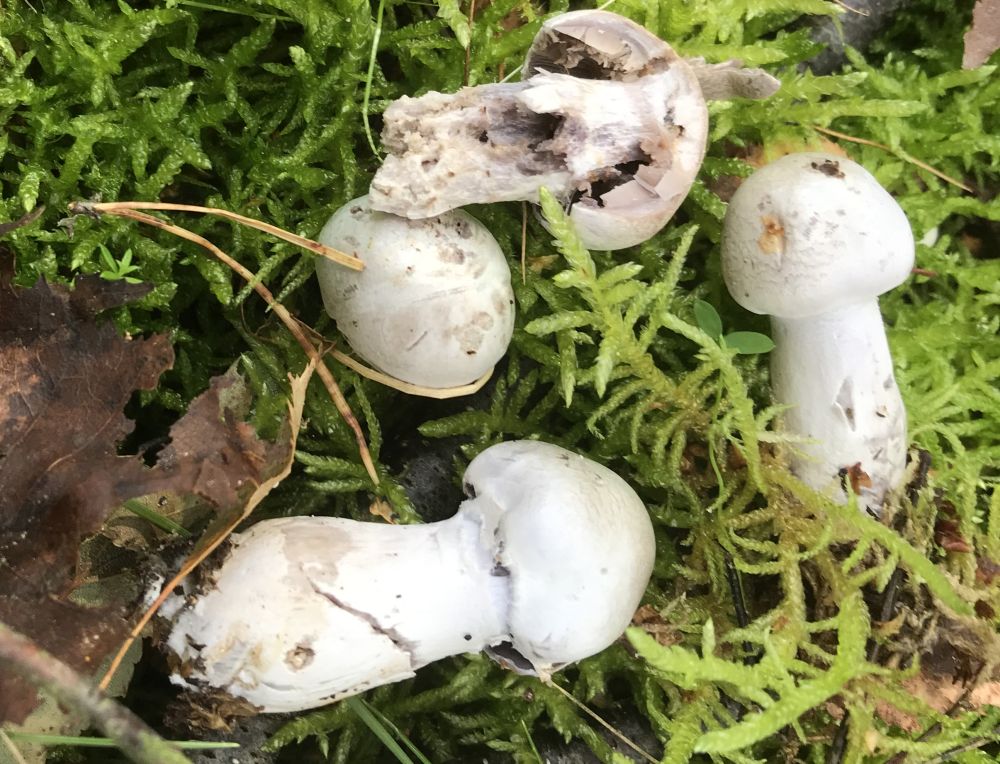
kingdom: Fungi
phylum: Basidiomycota
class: Agaricomycetes
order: Agaricales
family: Cortinariaceae
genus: Cortinarius
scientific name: Cortinarius
